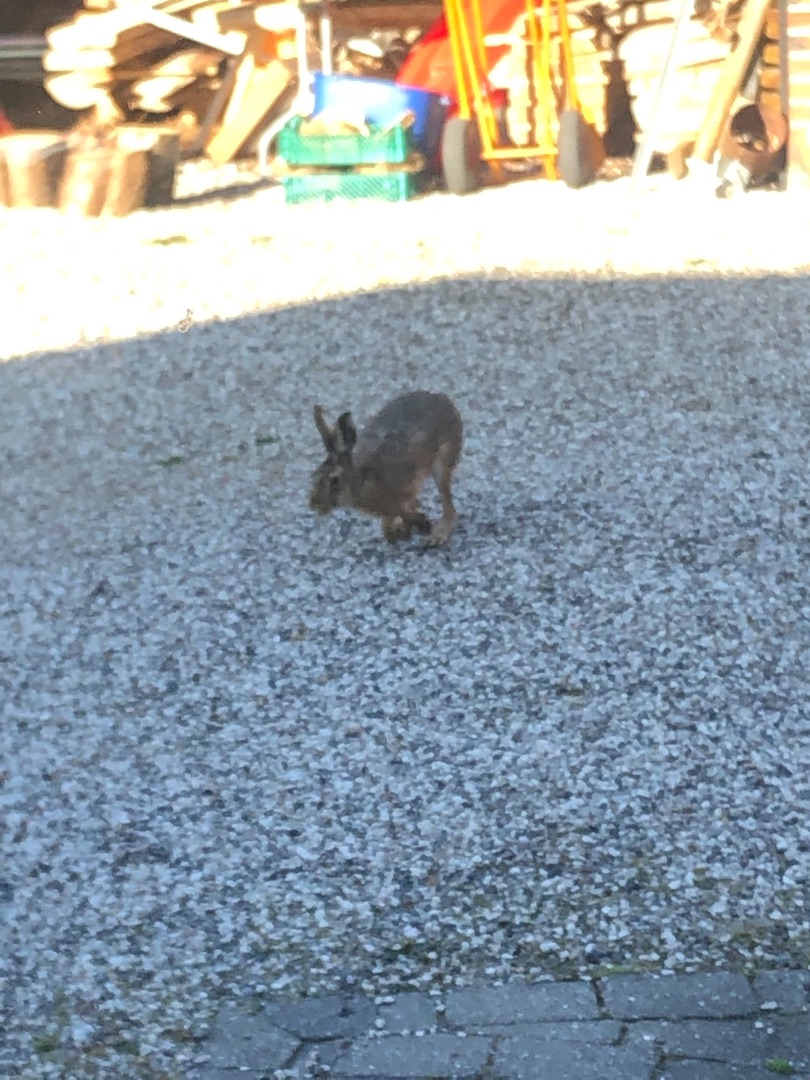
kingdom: Animalia
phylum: Chordata
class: Mammalia
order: Lagomorpha
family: Leporidae
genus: Lepus
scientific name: Lepus europaeus
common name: Hare
